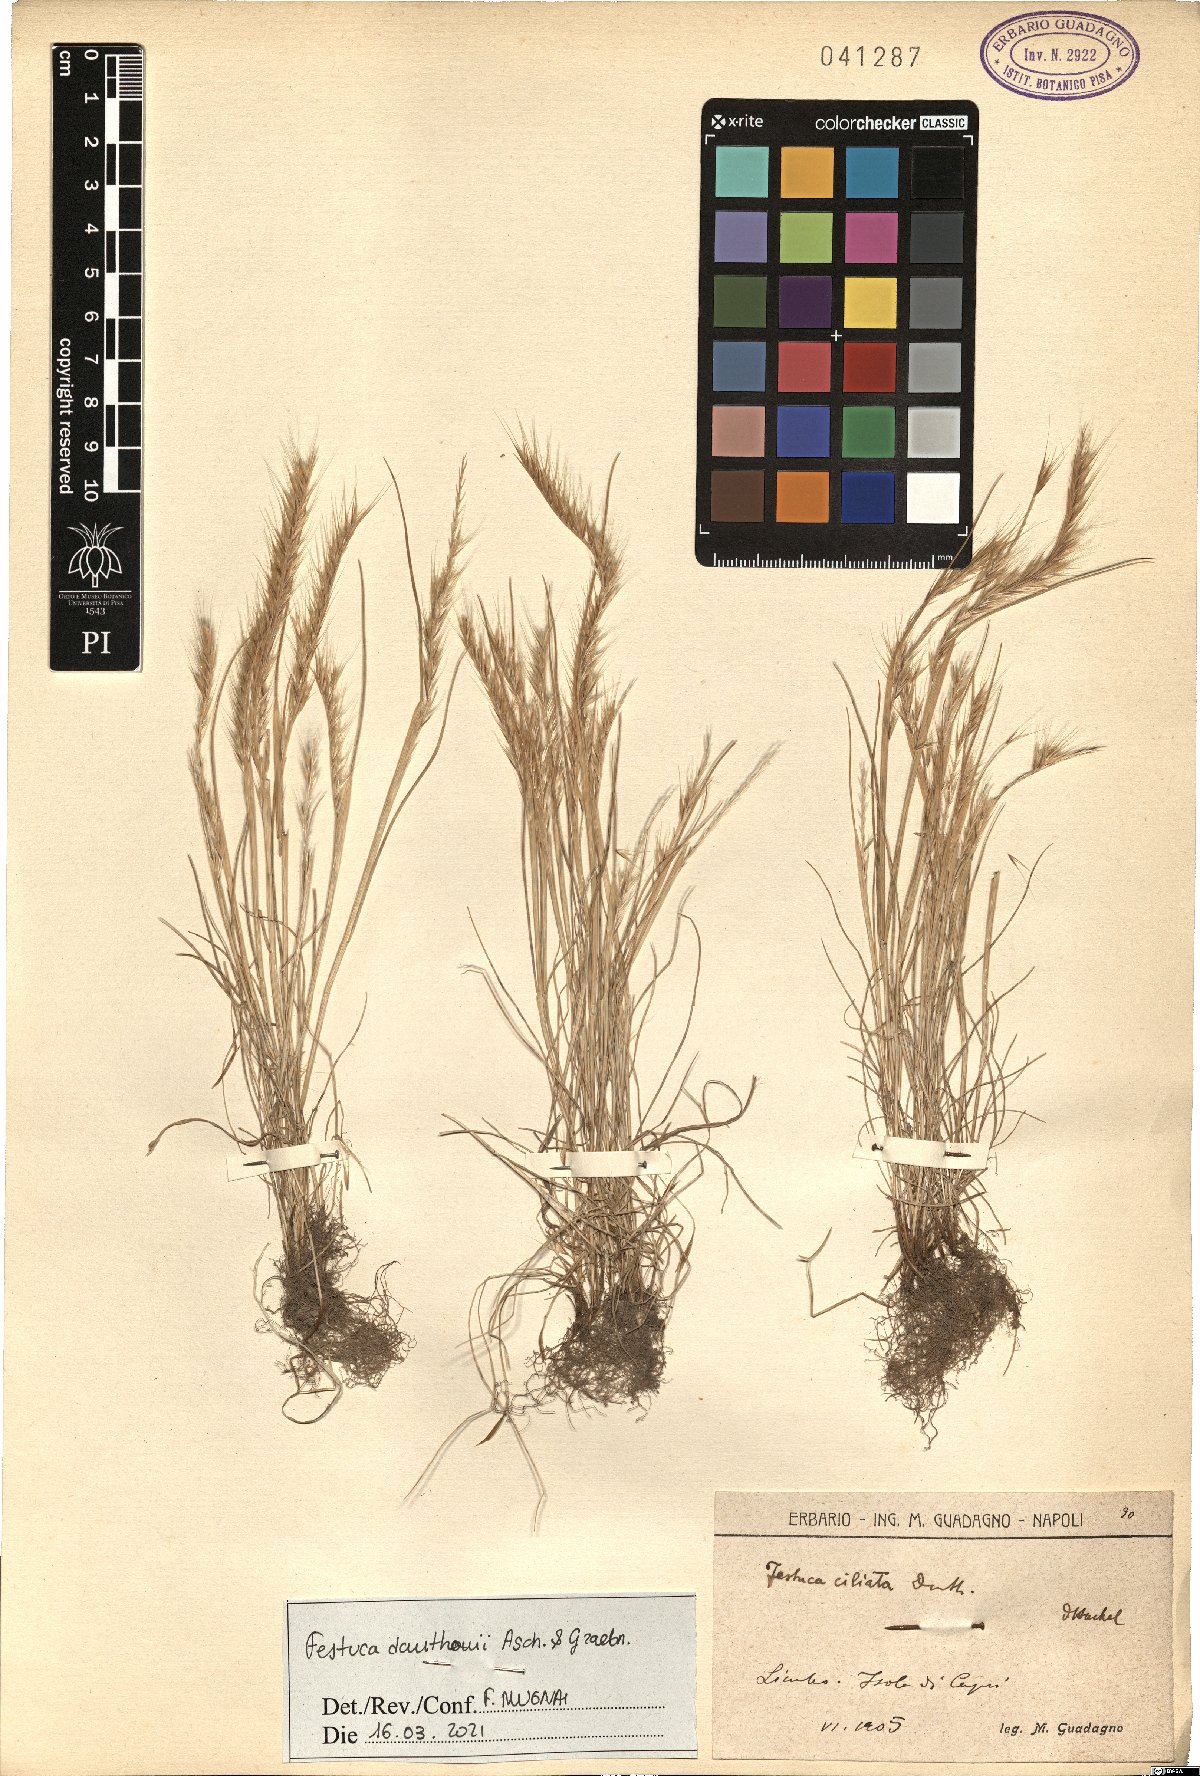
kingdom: Plantae
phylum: Tracheophyta
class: Liliopsida
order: Poales
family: Poaceae
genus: Festuca
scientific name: Festuca ambigua
